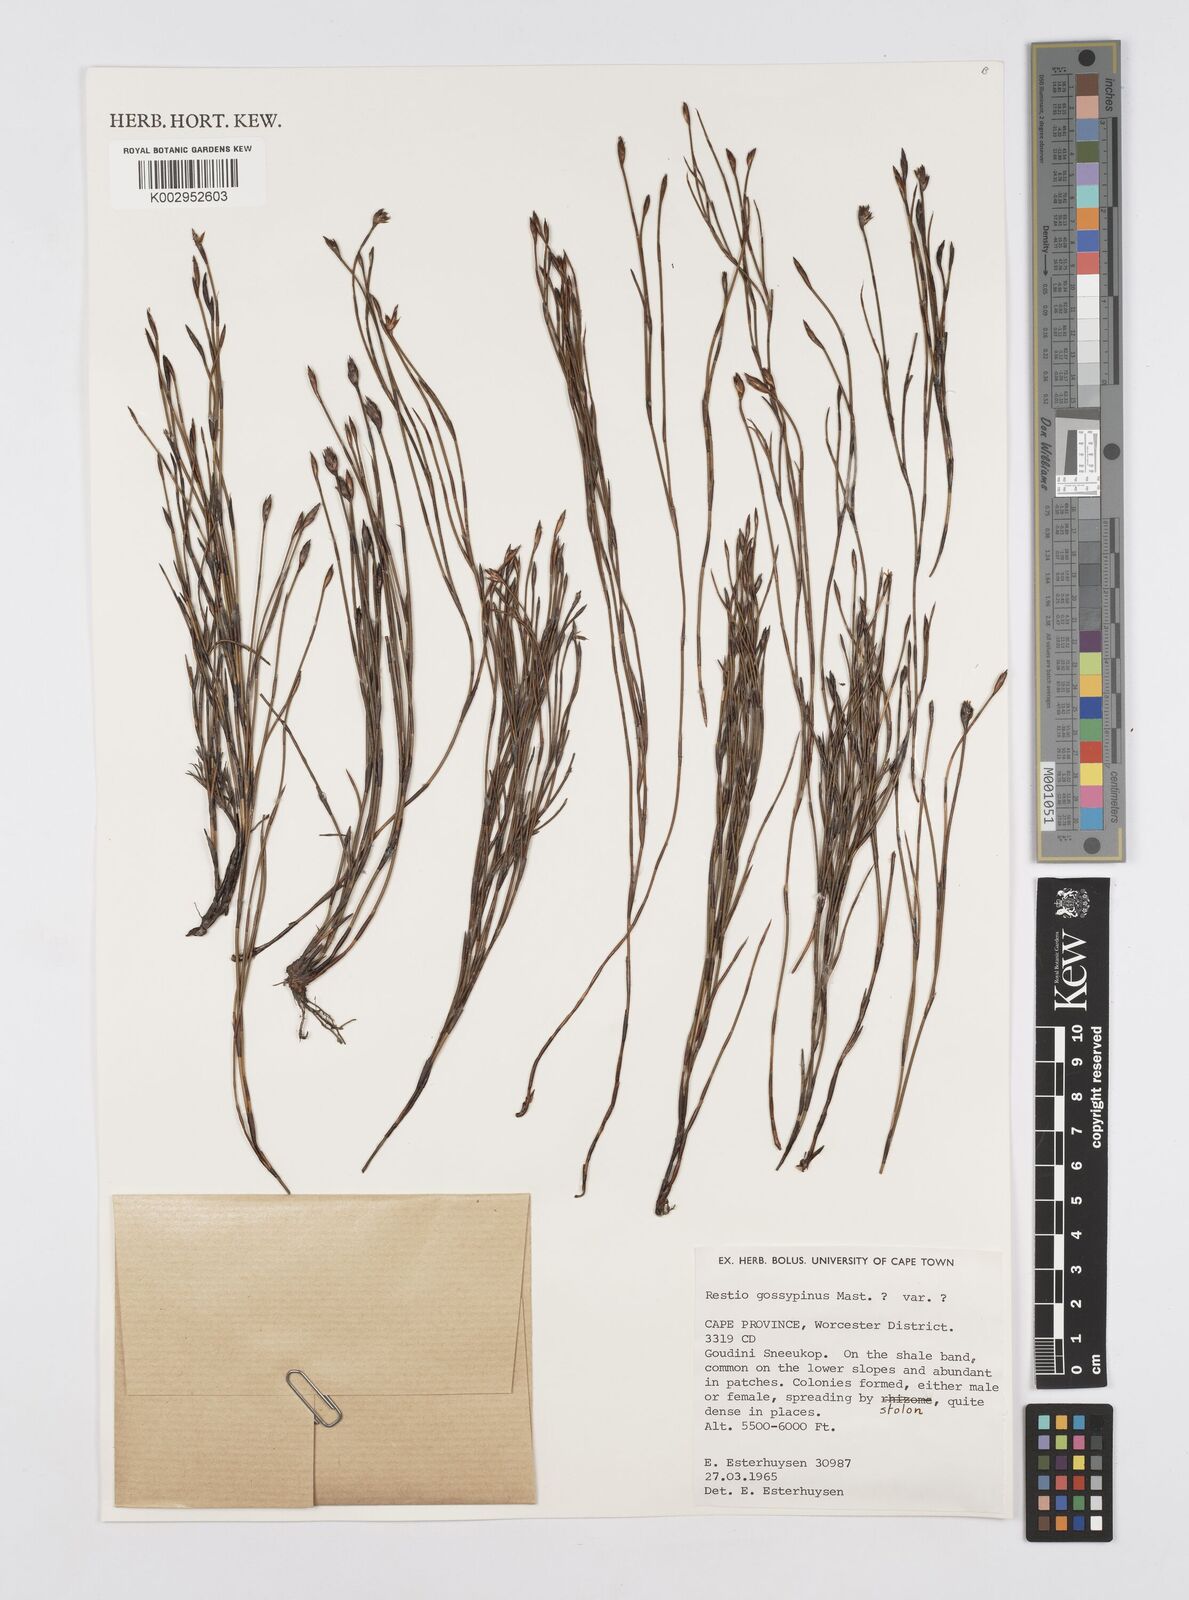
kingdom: Plantae
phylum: Tracheophyta
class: Liliopsida
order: Poales
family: Restionaceae
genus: Restio
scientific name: Restio gossypinus
